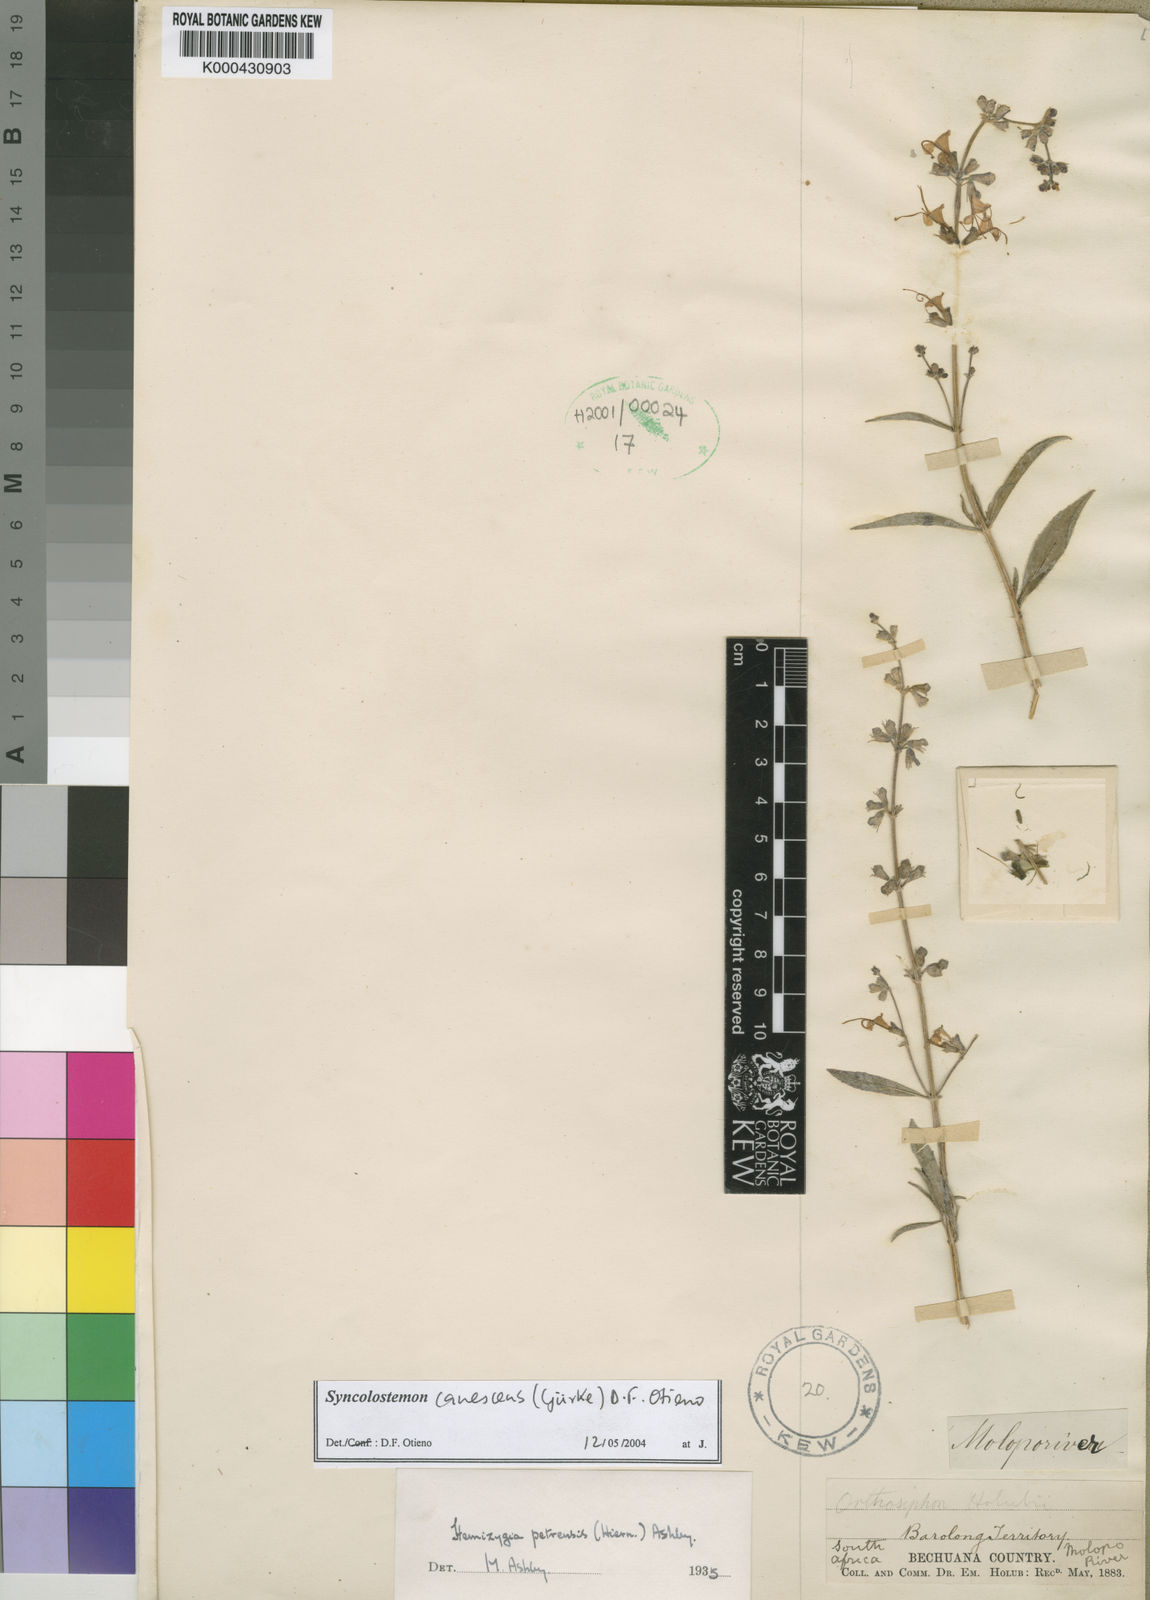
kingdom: Plantae
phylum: Tracheophyta
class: Magnoliopsida
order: Lamiales
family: Lamiaceae
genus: Syncolostemon
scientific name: Syncolostemon
